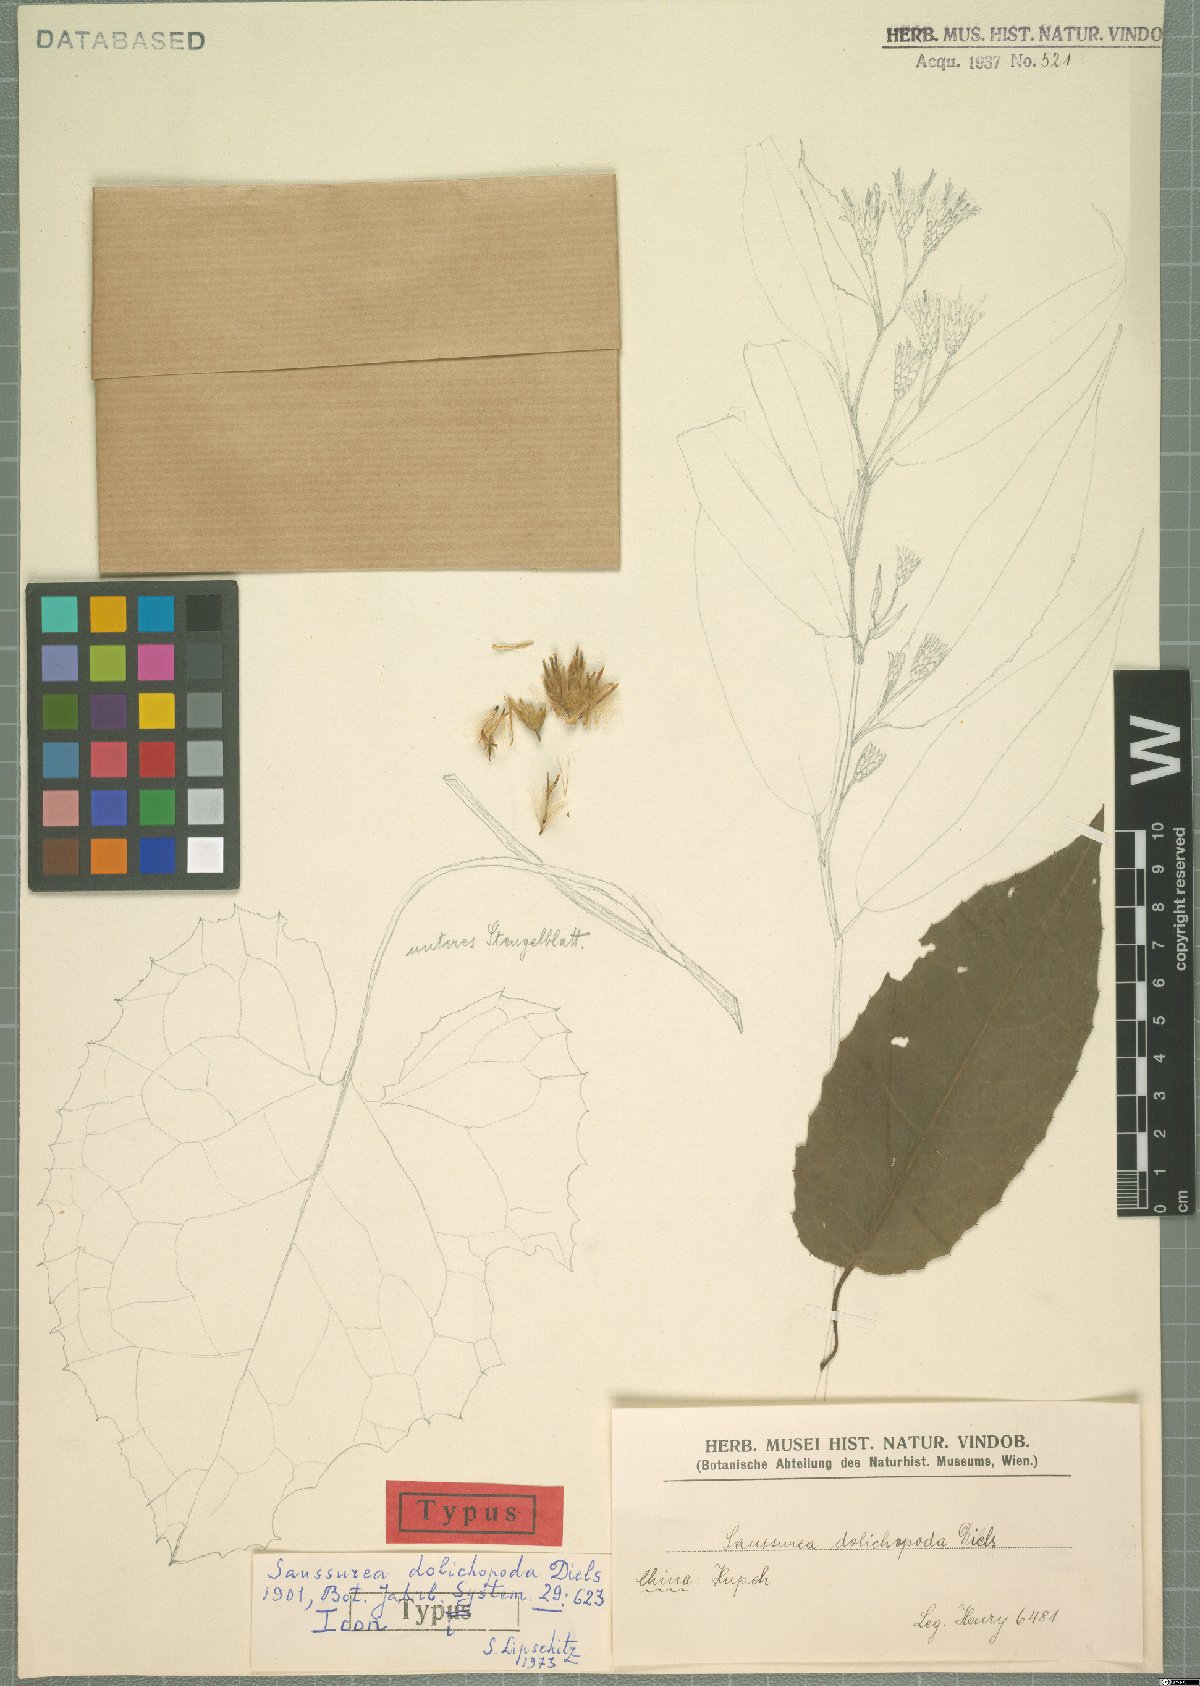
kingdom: Plantae
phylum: Tracheophyta
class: Magnoliopsida
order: Asterales
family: Asteraceae
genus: Saussurea
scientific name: Saussurea dolichopoda
